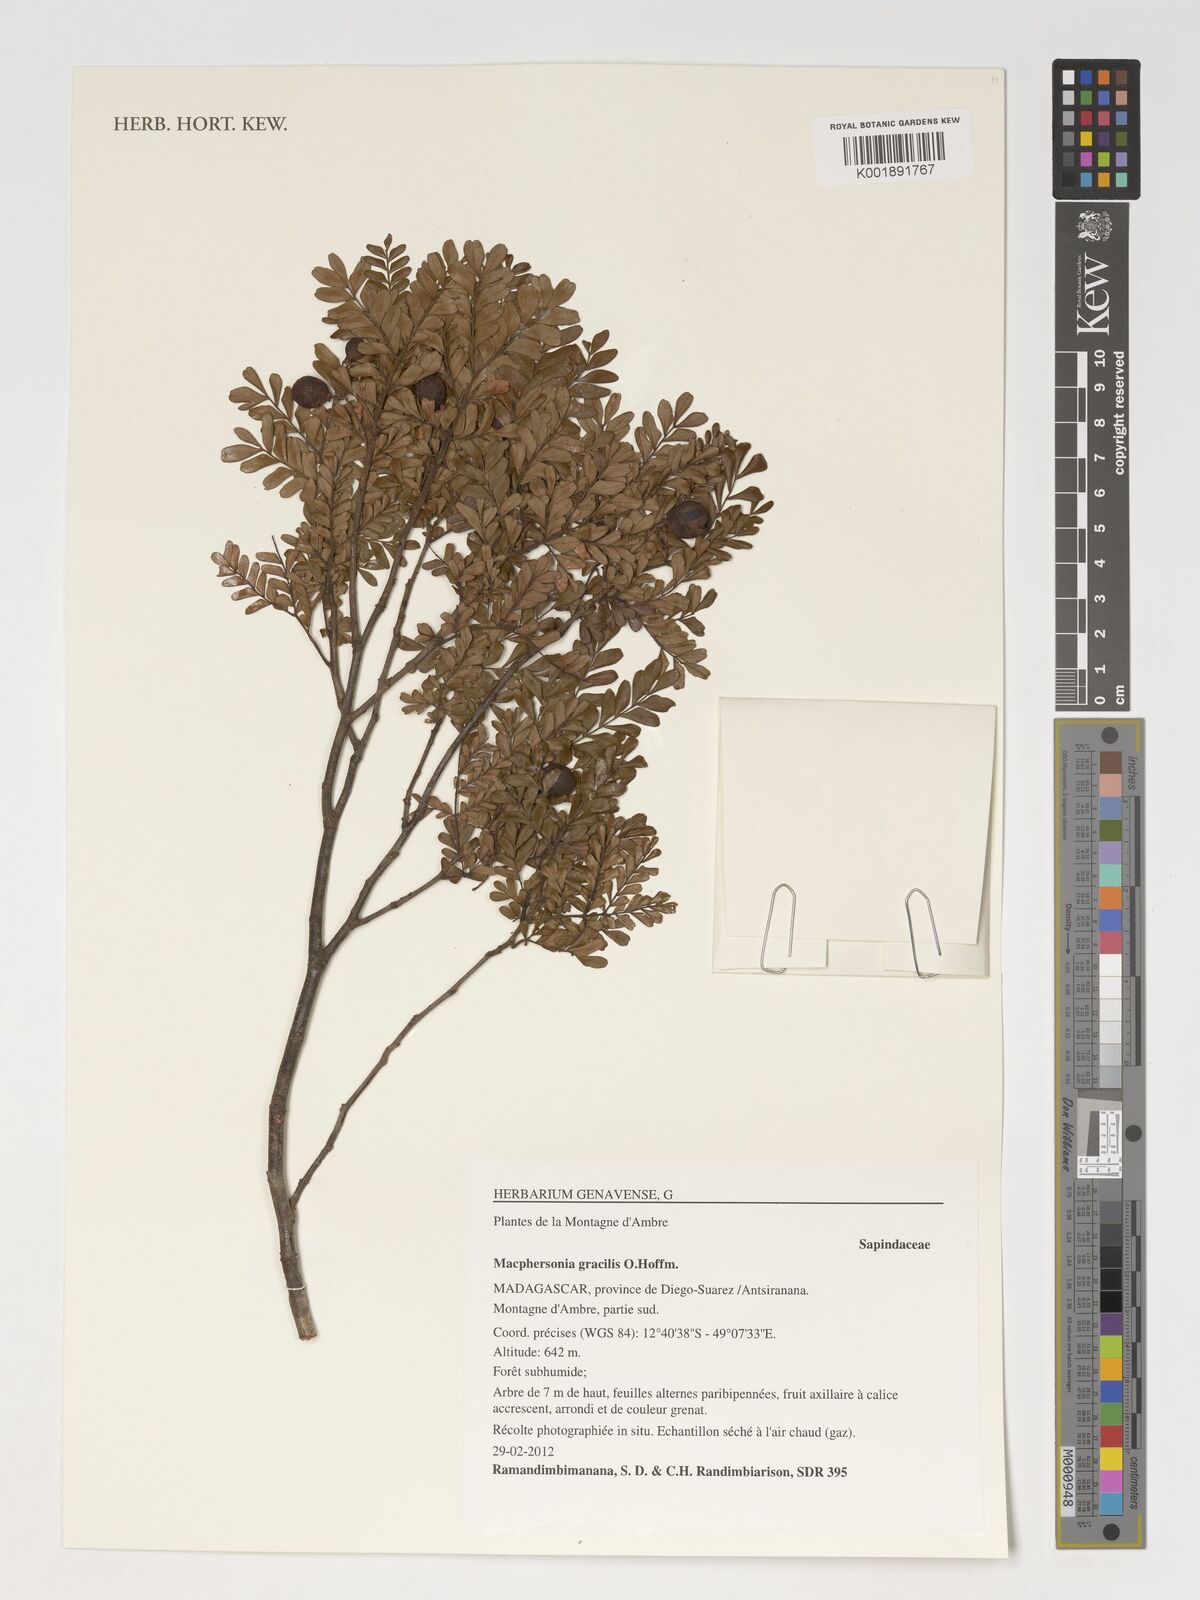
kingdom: Plantae
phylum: Tracheophyta
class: Magnoliopsida
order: Sapindales
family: Sapindaceae
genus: Macphersonia
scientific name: Macphersonia gracilis
